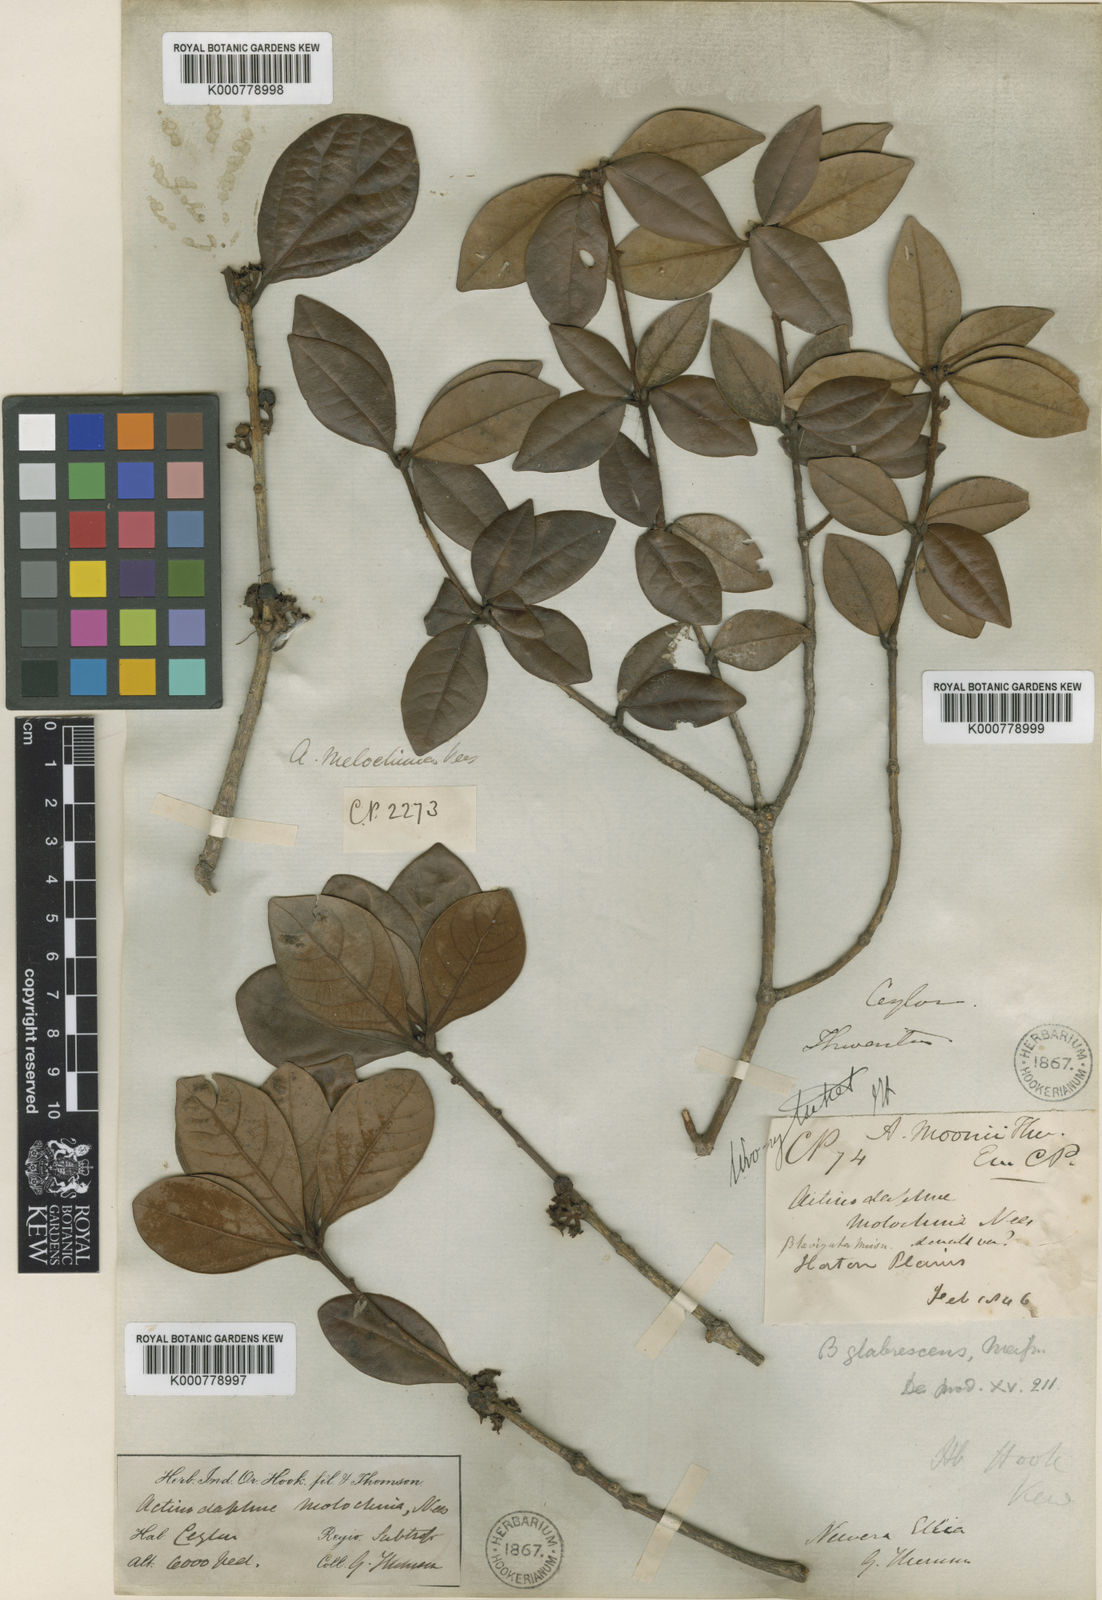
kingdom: Plantae
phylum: Tracheophyta
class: Magnoliopsida
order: Laurales
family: Lauraceae
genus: Actinodaphne
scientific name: Actinodaphne molochina
